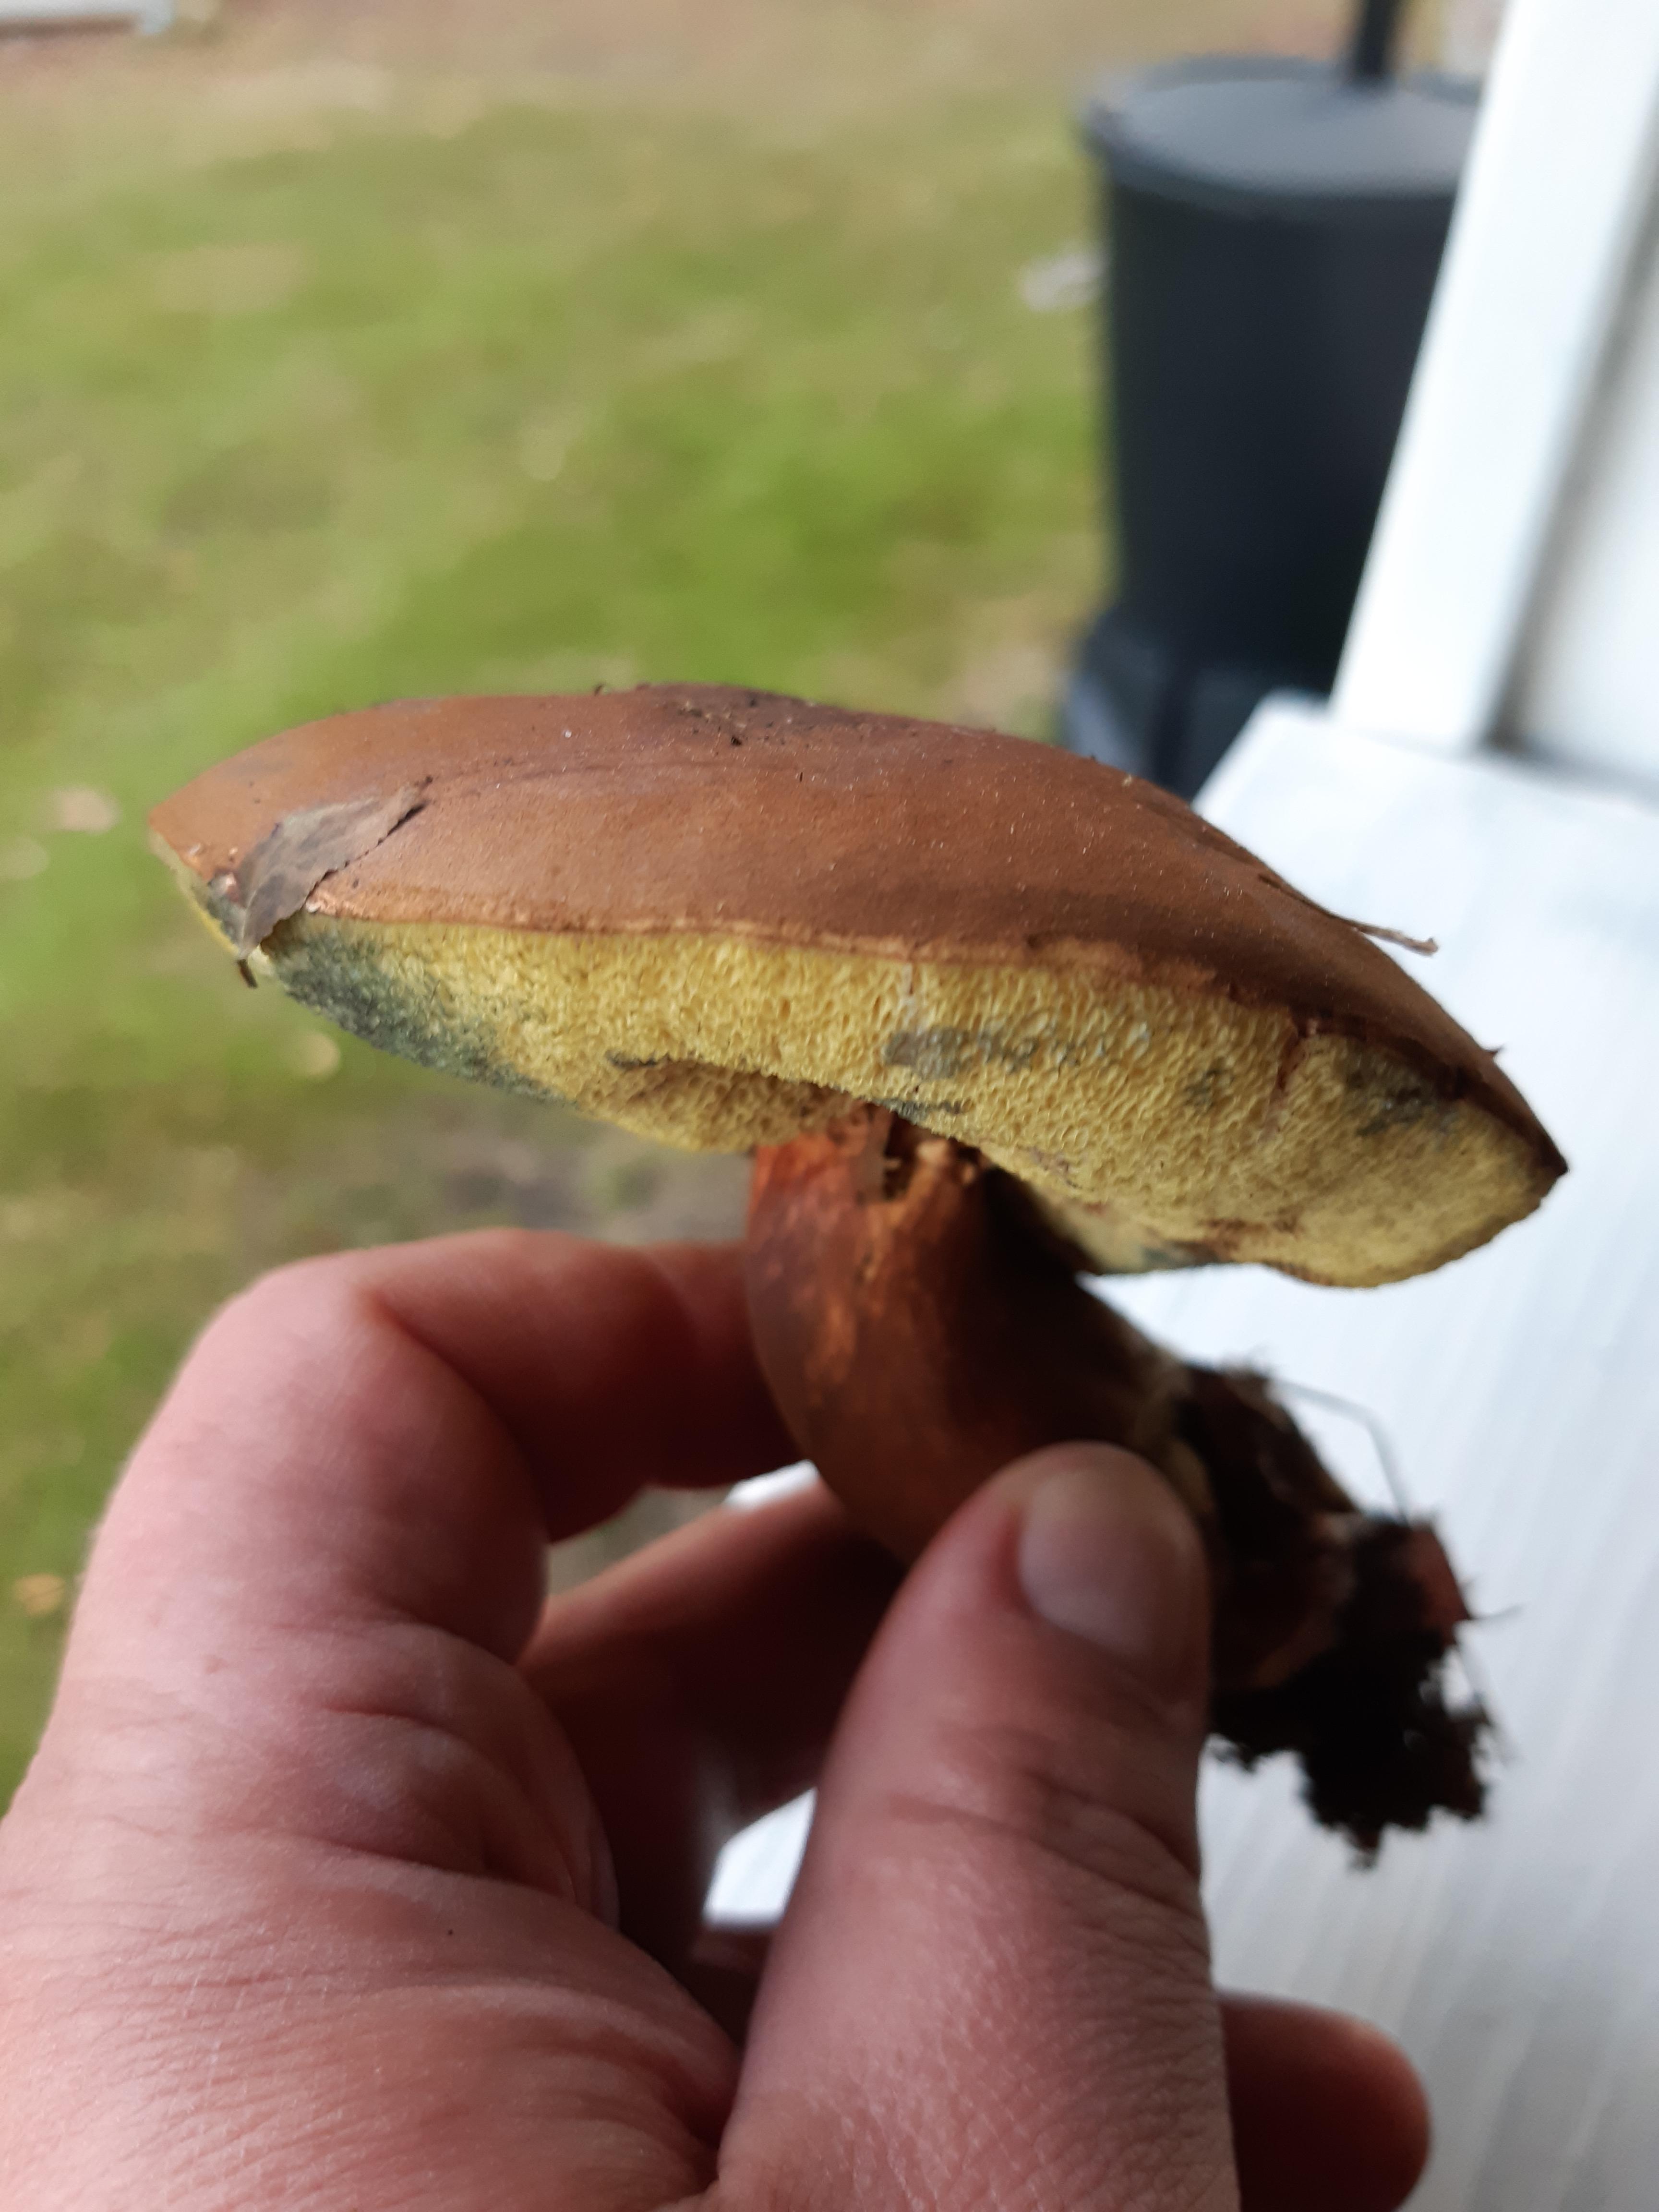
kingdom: Fungi
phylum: Basidiomycota
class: Agaricomycetes
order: Boletales
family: Boletaceae
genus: Imleria
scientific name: Imleria badia
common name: brunstokket rørhat
